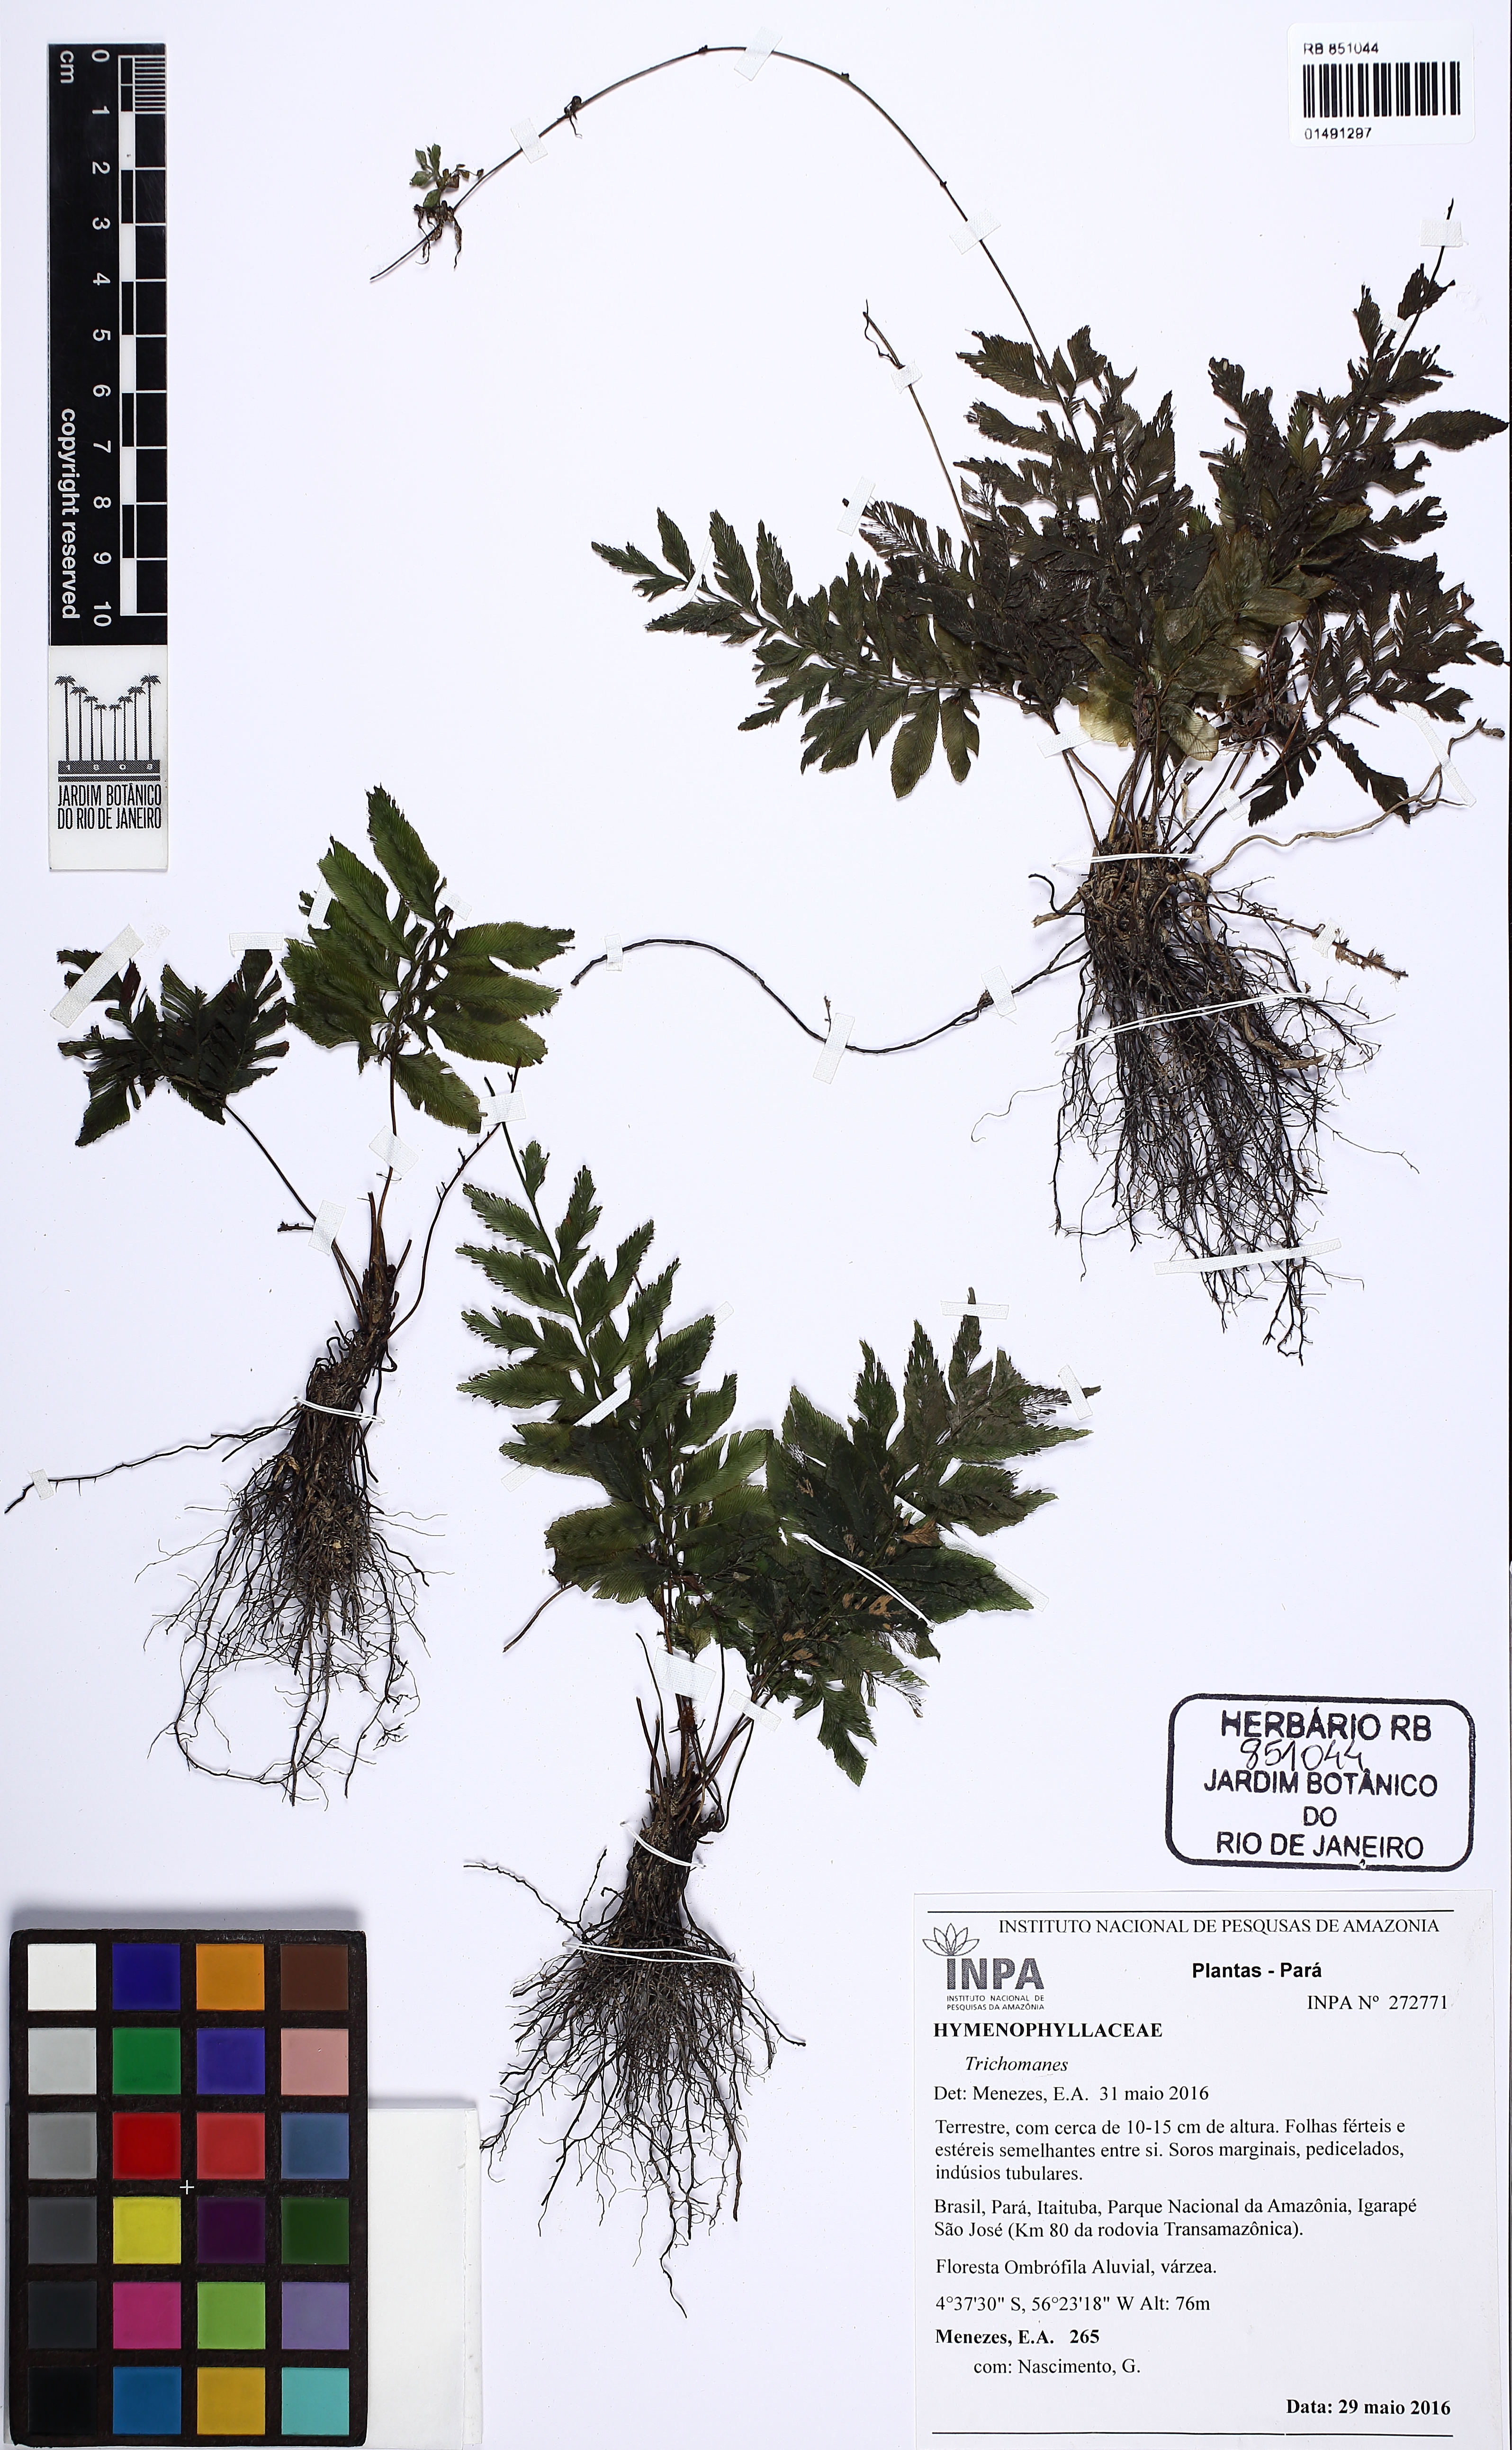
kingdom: Plantae
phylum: Tracheophyta
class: Polypodiopsida
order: Hymenophyllales
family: Hymenophyllaceae
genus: Trichomanes
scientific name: Trichomanes
